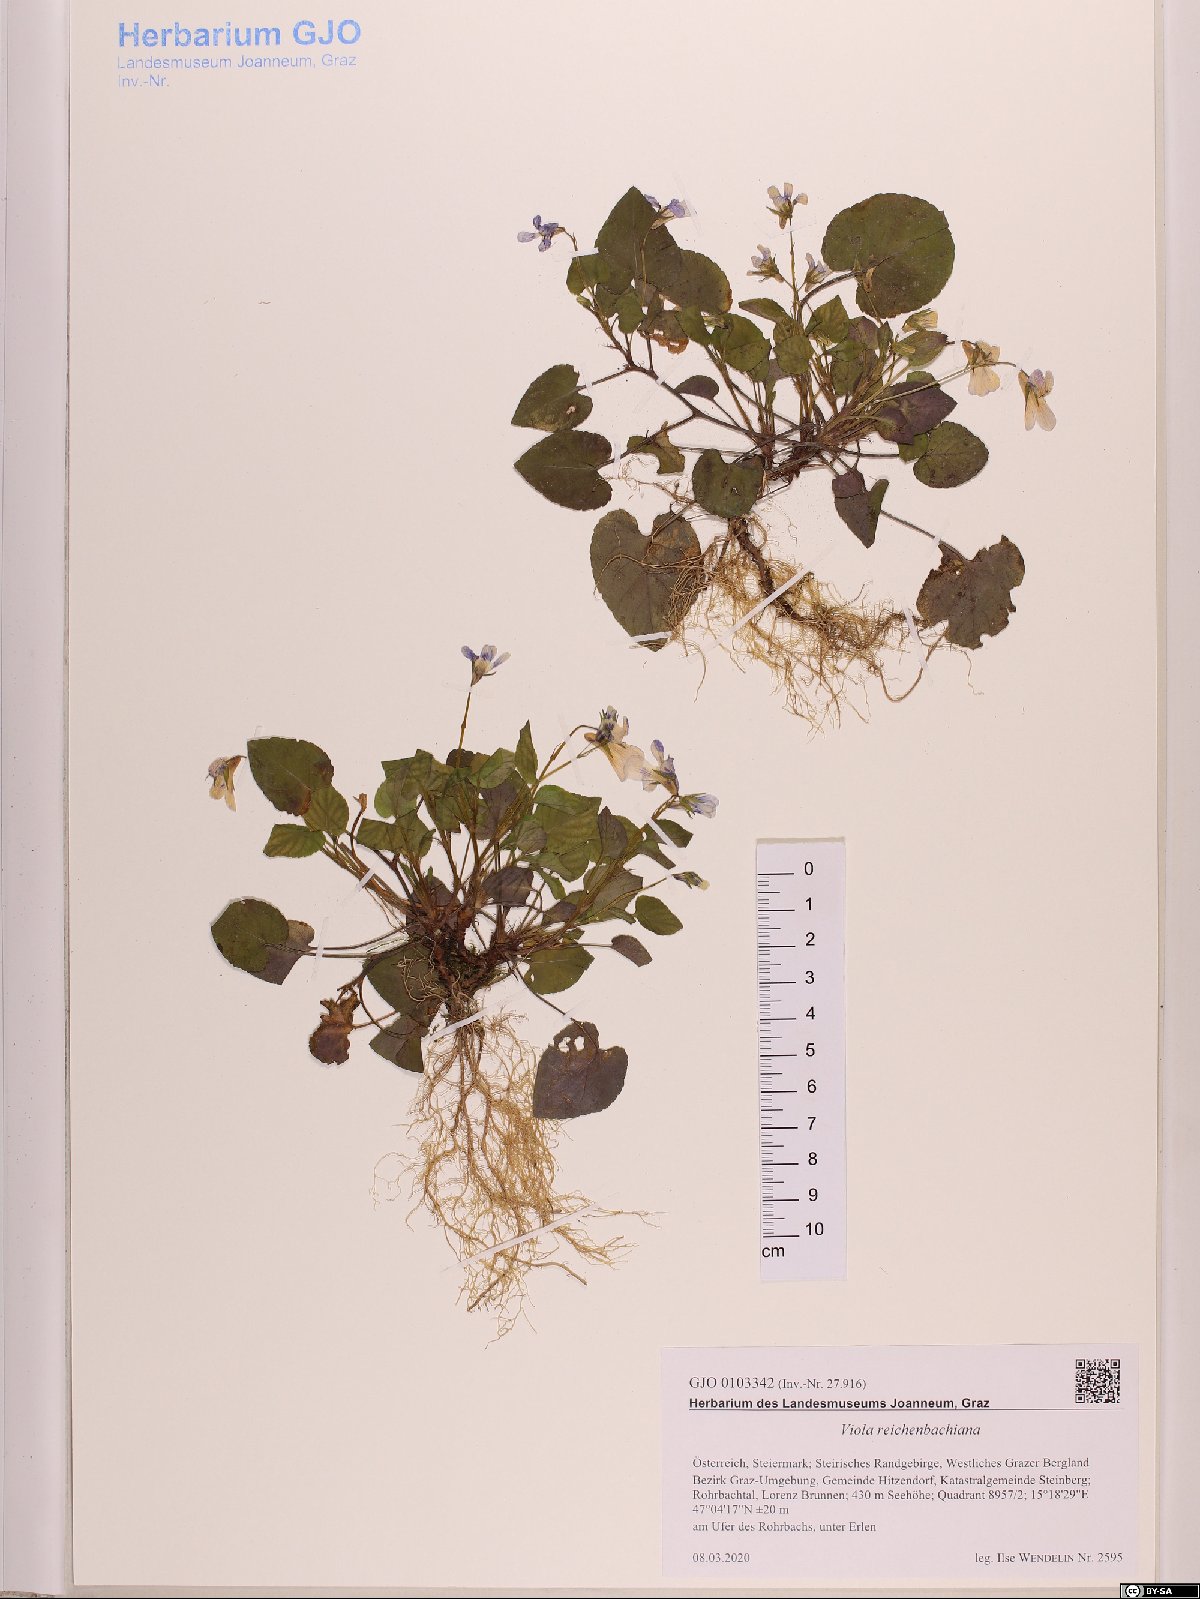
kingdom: Plantae
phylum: Tracheophyta
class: Magnoliopsida
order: Malpighiales
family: Violaceae
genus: Viola
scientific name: Viola reichenbachiana
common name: Early dog-violet
